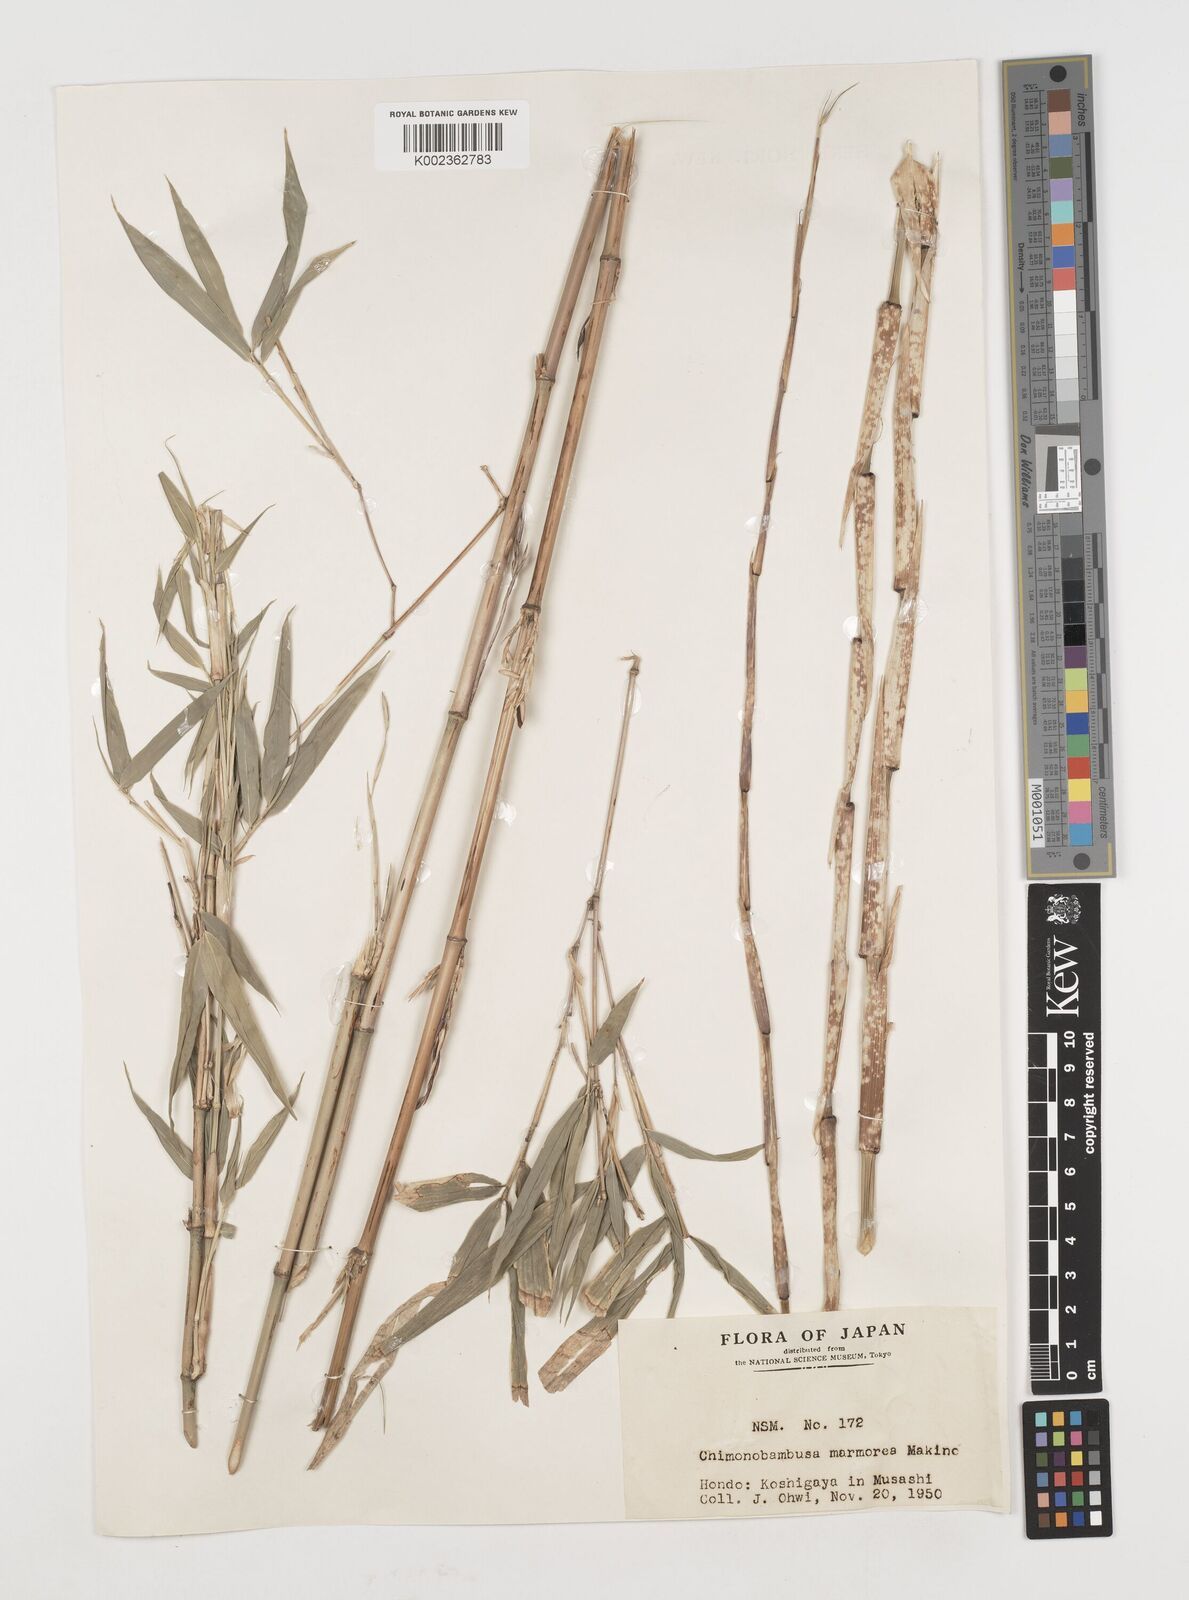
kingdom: Plantae
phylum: Tracheophyta
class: Liliopsida
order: Poales
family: Poaceae
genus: Chimonobambusa
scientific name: Chimonobambusa marmorea
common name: Marbled bamboo
